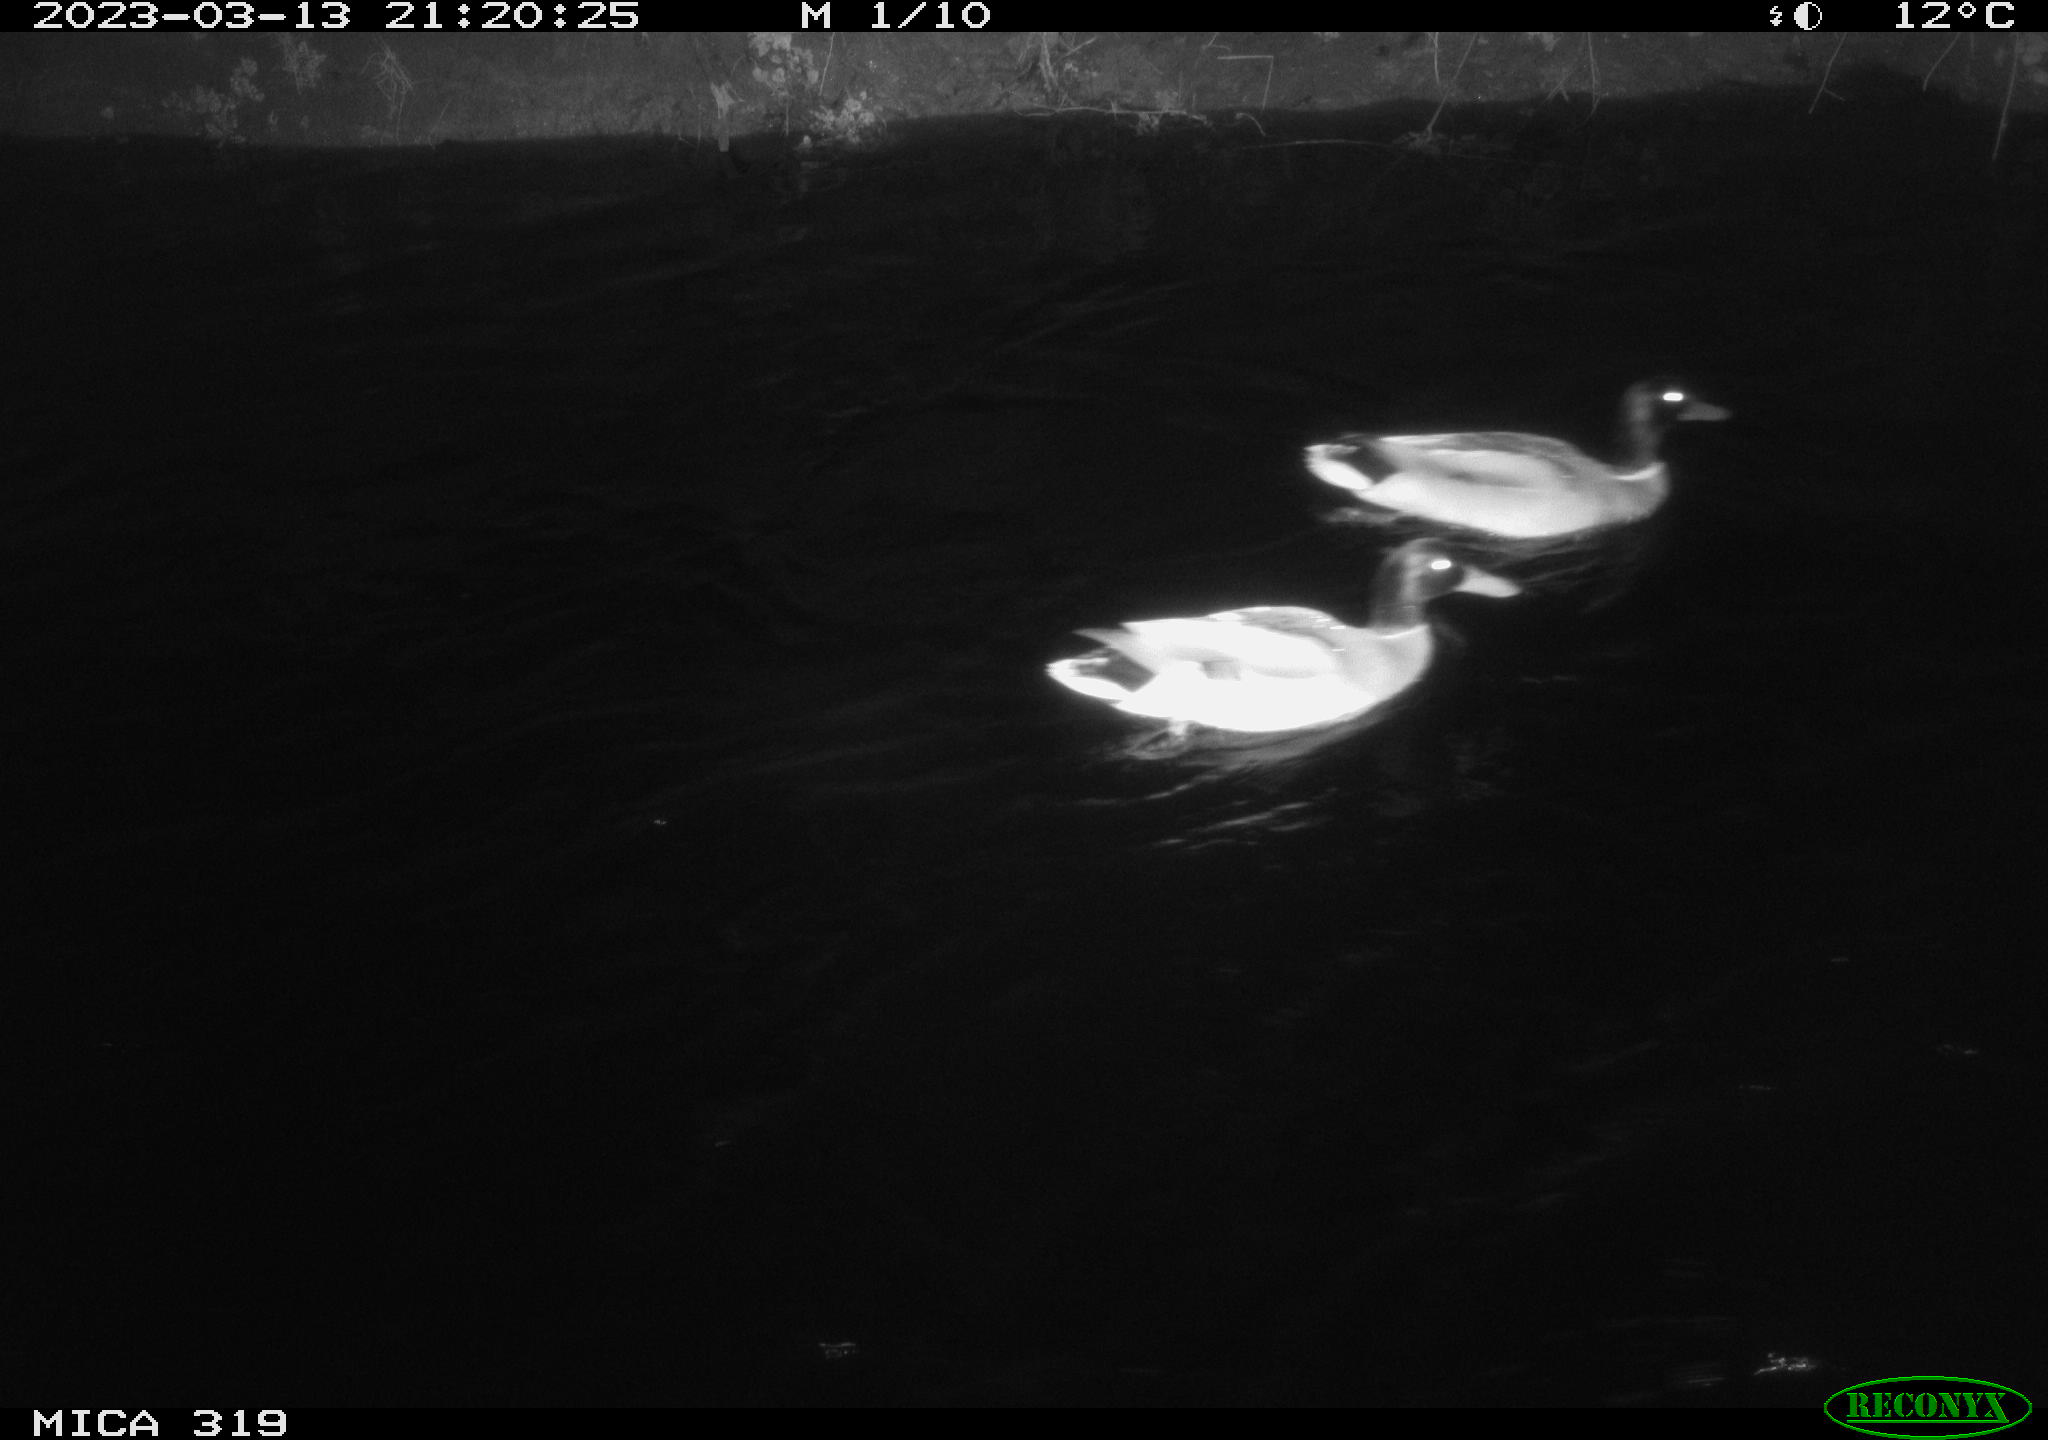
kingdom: Animalia
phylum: Chordata
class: Aves
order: Anseriformes
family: Anatidae
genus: Anas
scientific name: Anas
